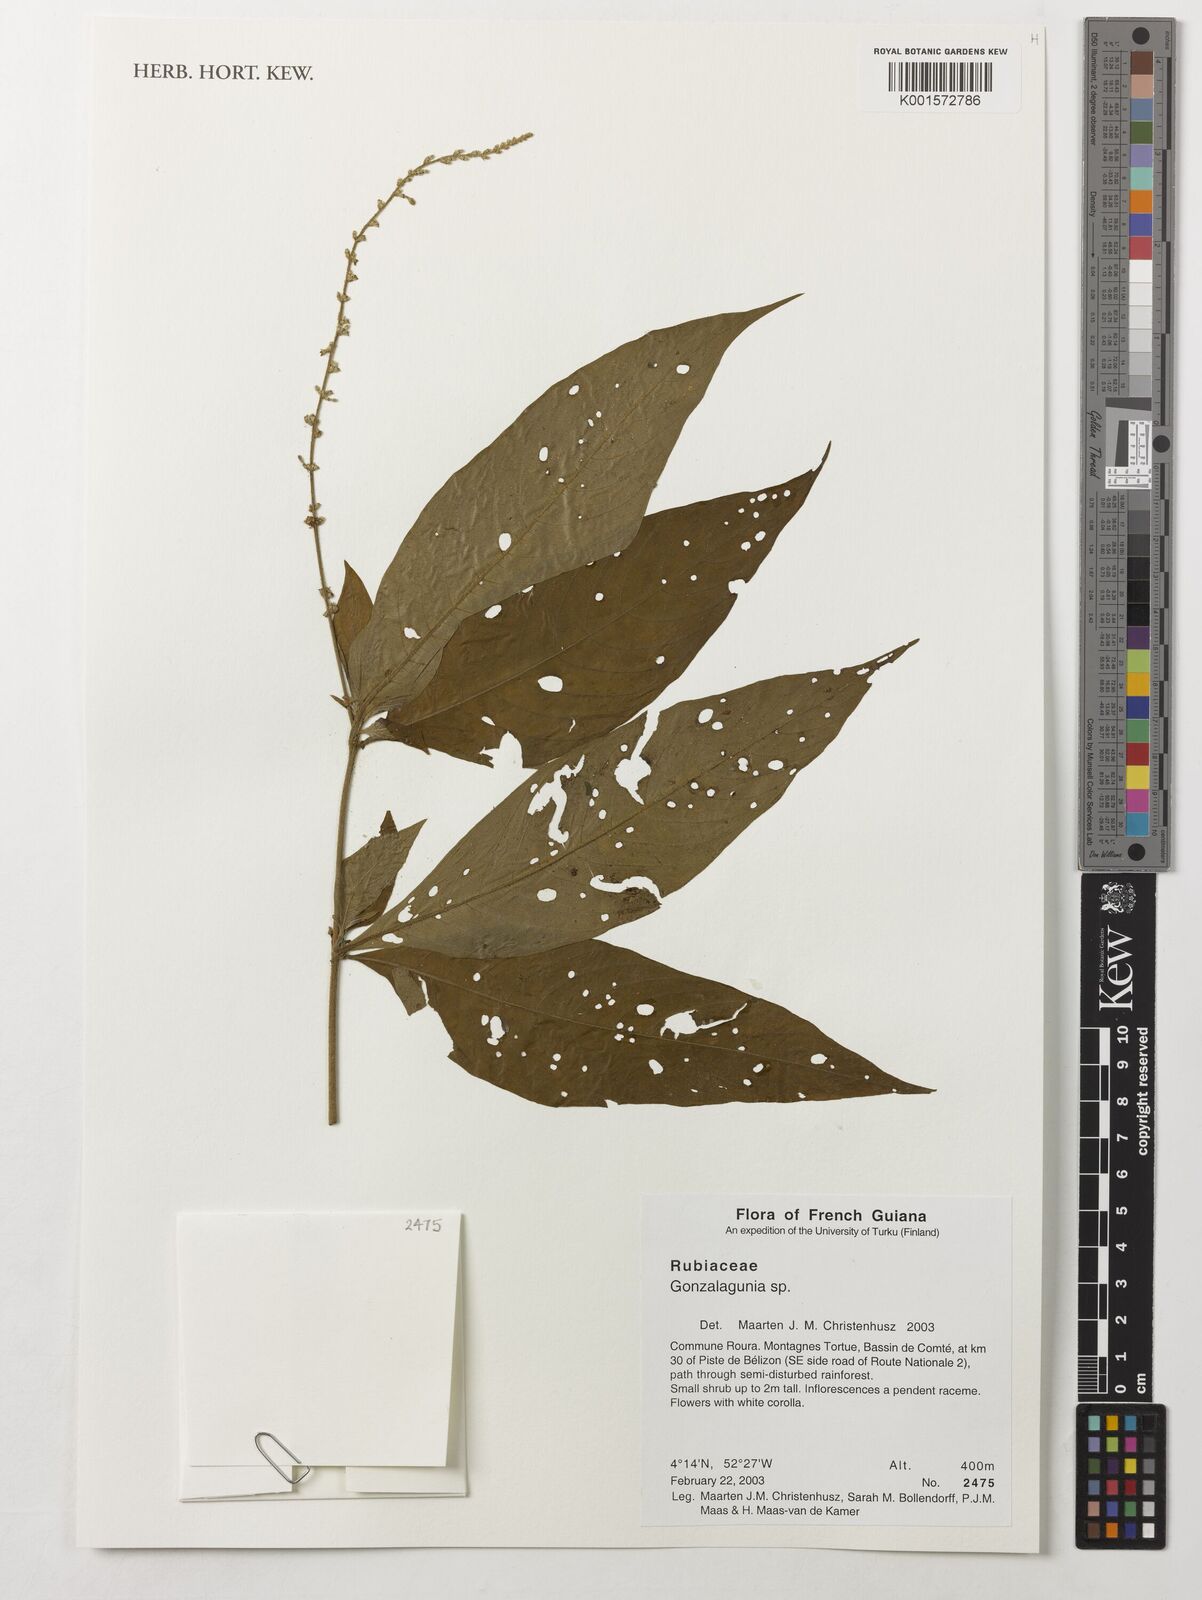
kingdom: Plantae
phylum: Tracheophyta
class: Magnoliopsida
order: Gentianales
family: Rubiaceae
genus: Gonzalagunia
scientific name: Gonzalagunia
